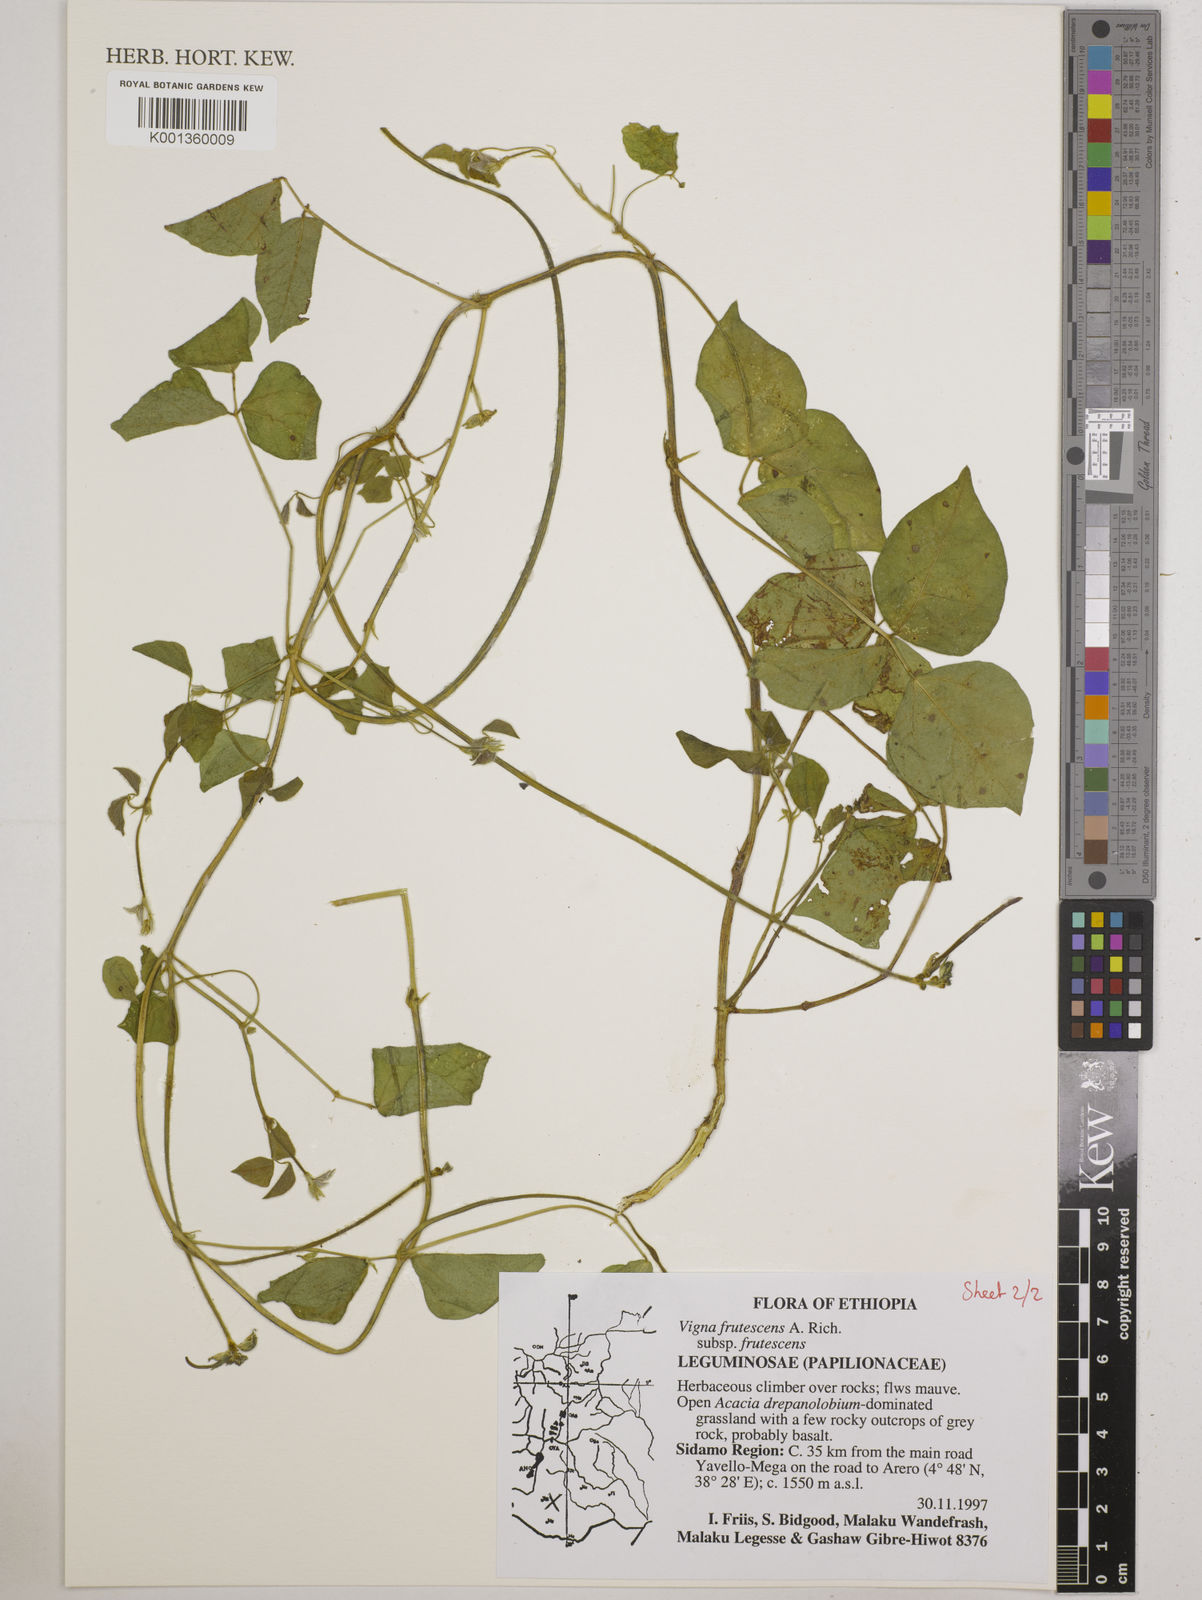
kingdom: Plantae
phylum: Tracheophyta
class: Magnoliopsida
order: Fabales
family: Fabaceae
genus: Vigna
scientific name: Vigna frutescens
